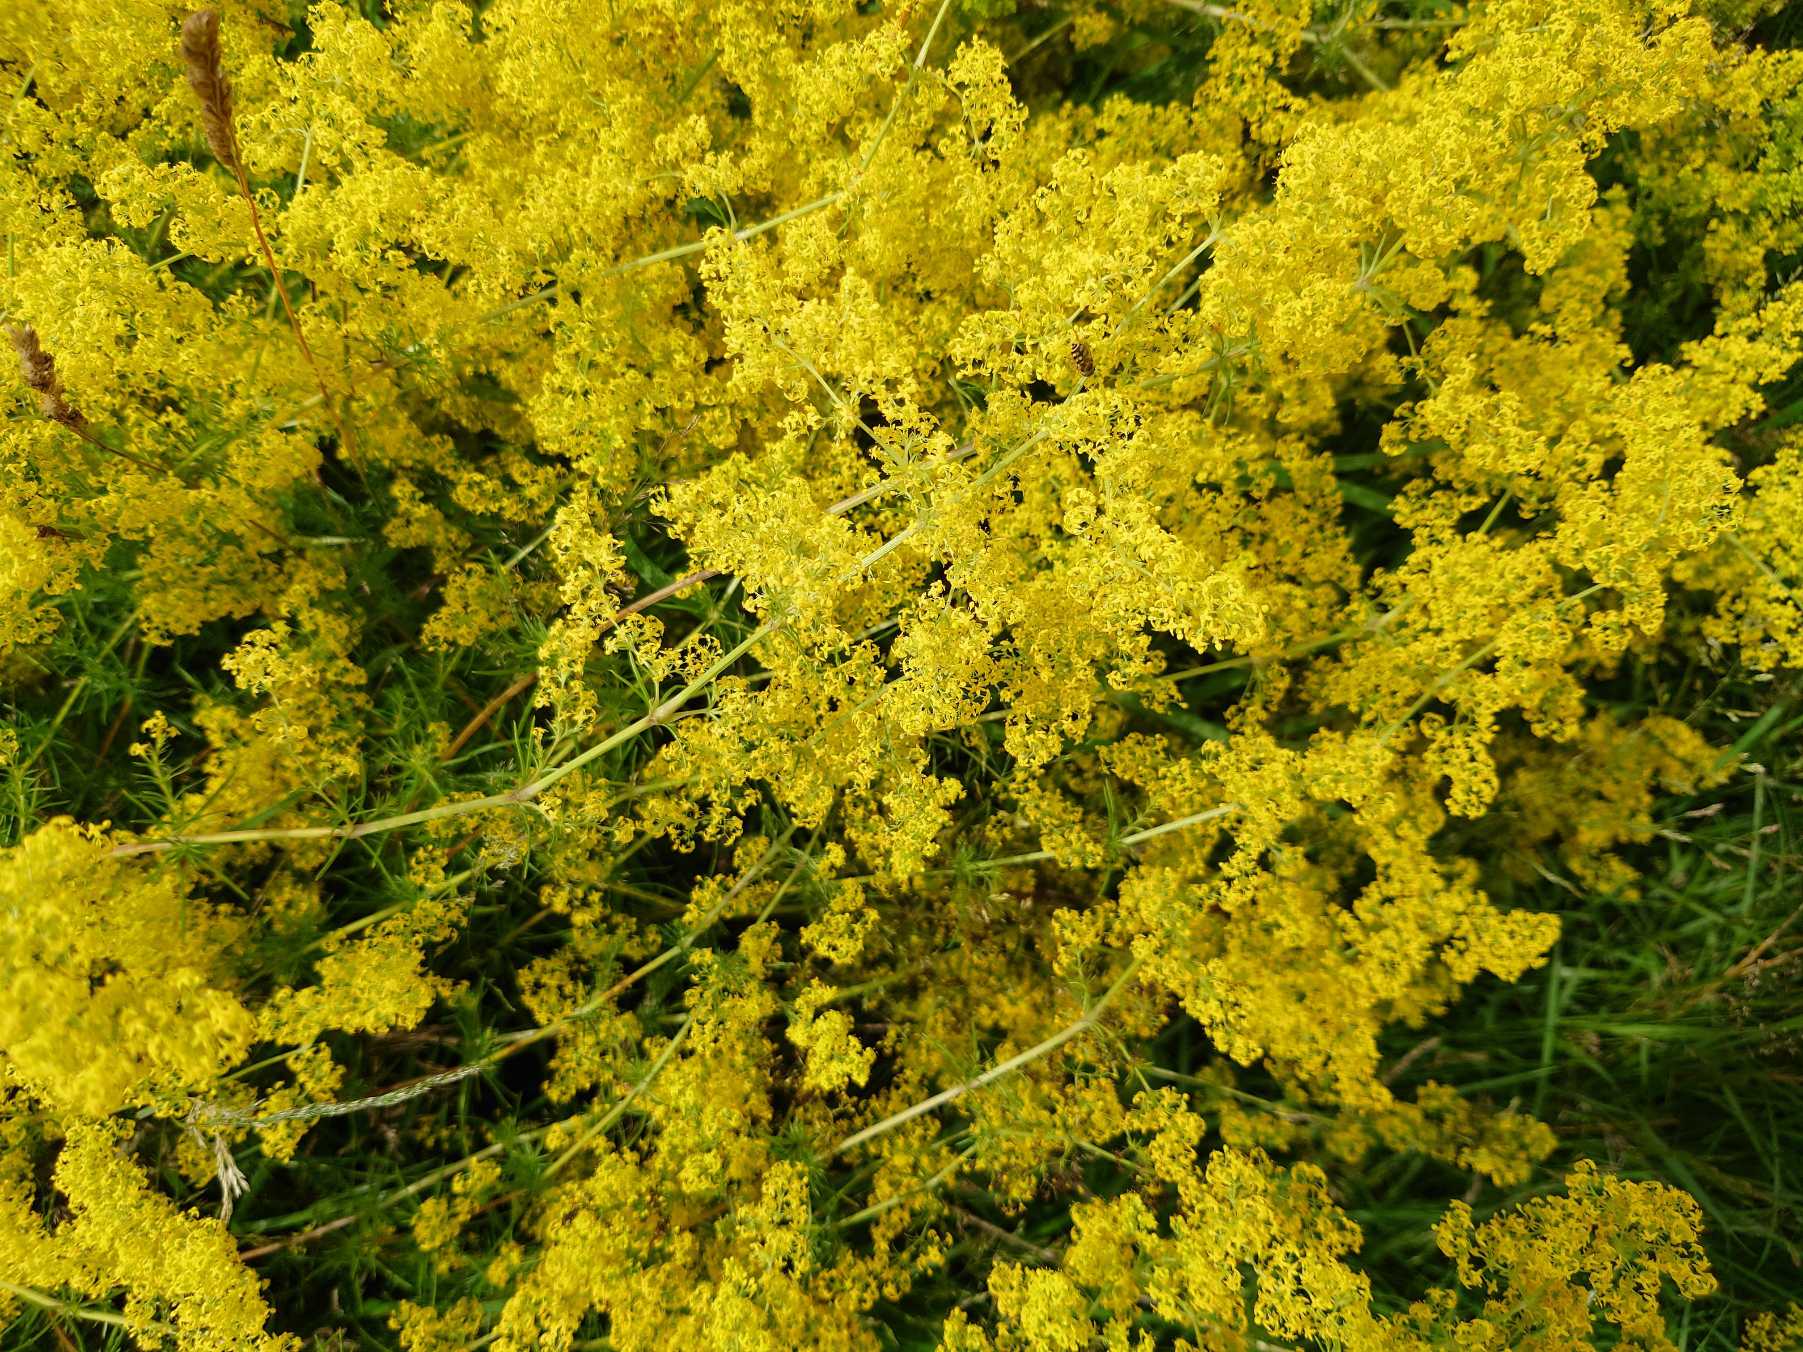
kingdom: Plantae
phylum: Tracheophyta
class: Magnoliopsida
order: Gentianales
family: Rubiaceae
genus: Galium
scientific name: Galium verum
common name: Gul snerre
